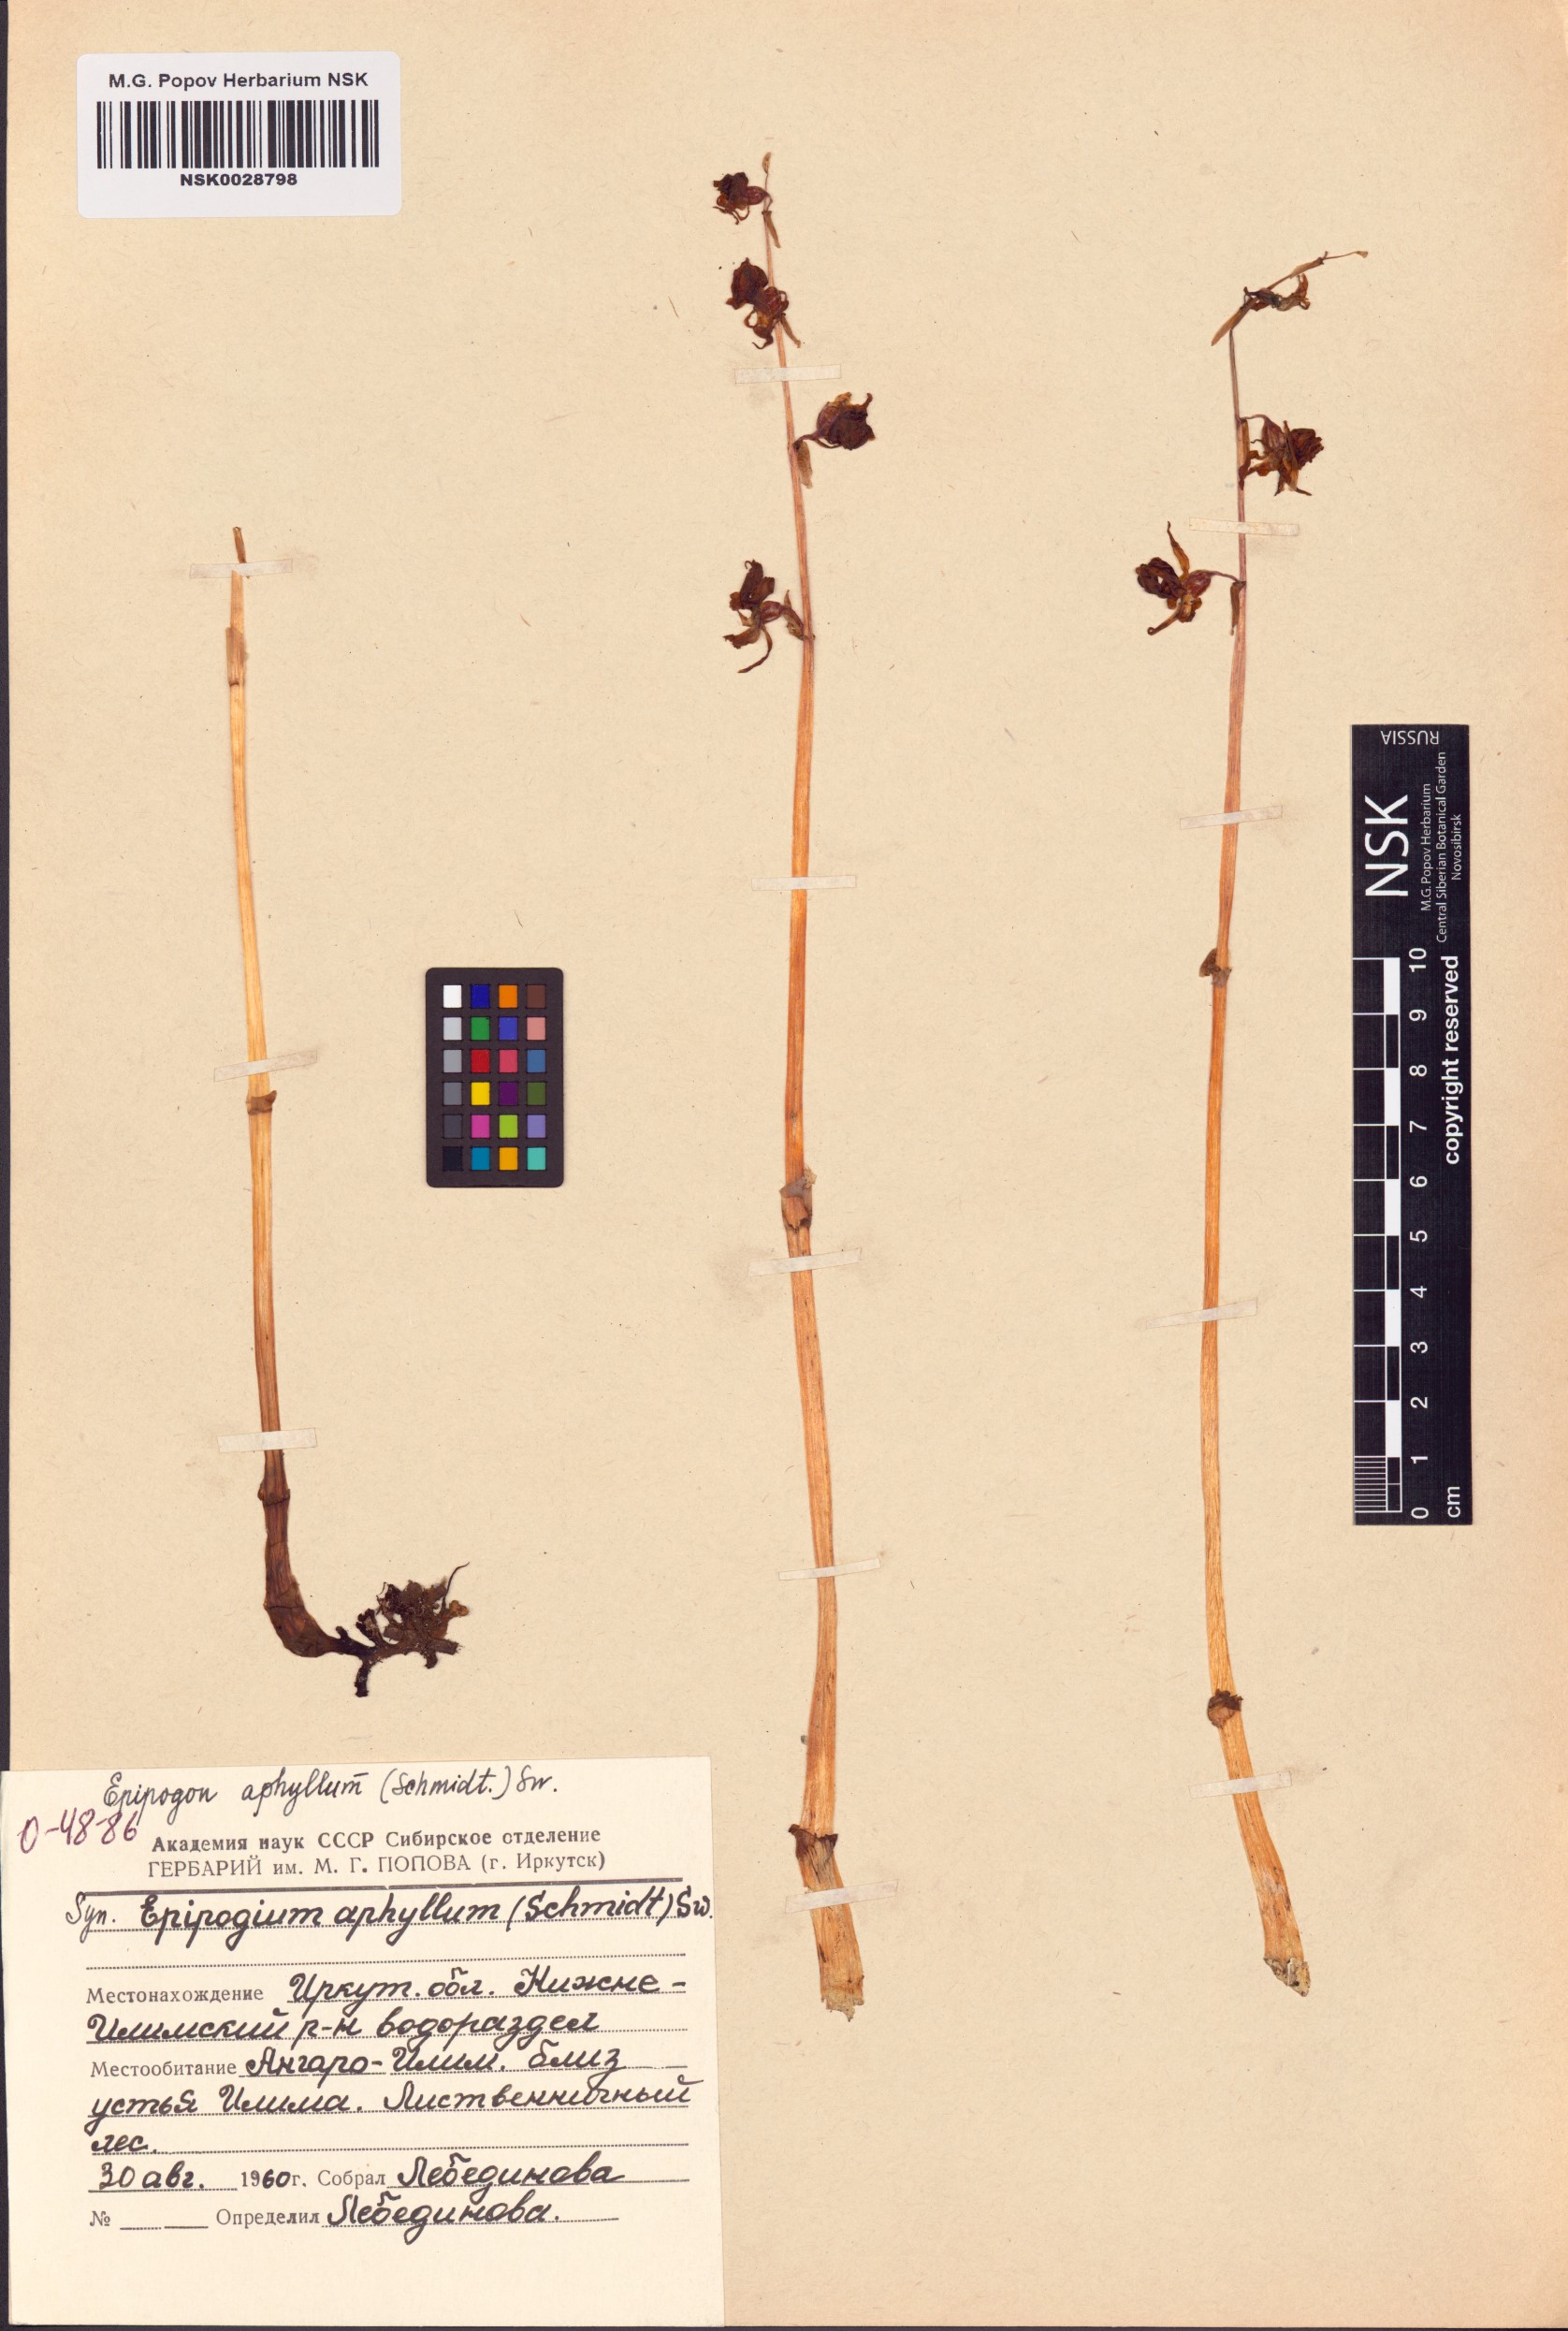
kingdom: Plantae
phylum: Tracheophyta
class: Liliopsida
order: Asparagales
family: Orchidaceae
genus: Epipogium
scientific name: Epipogium aphyllum
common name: Ghost orchid
